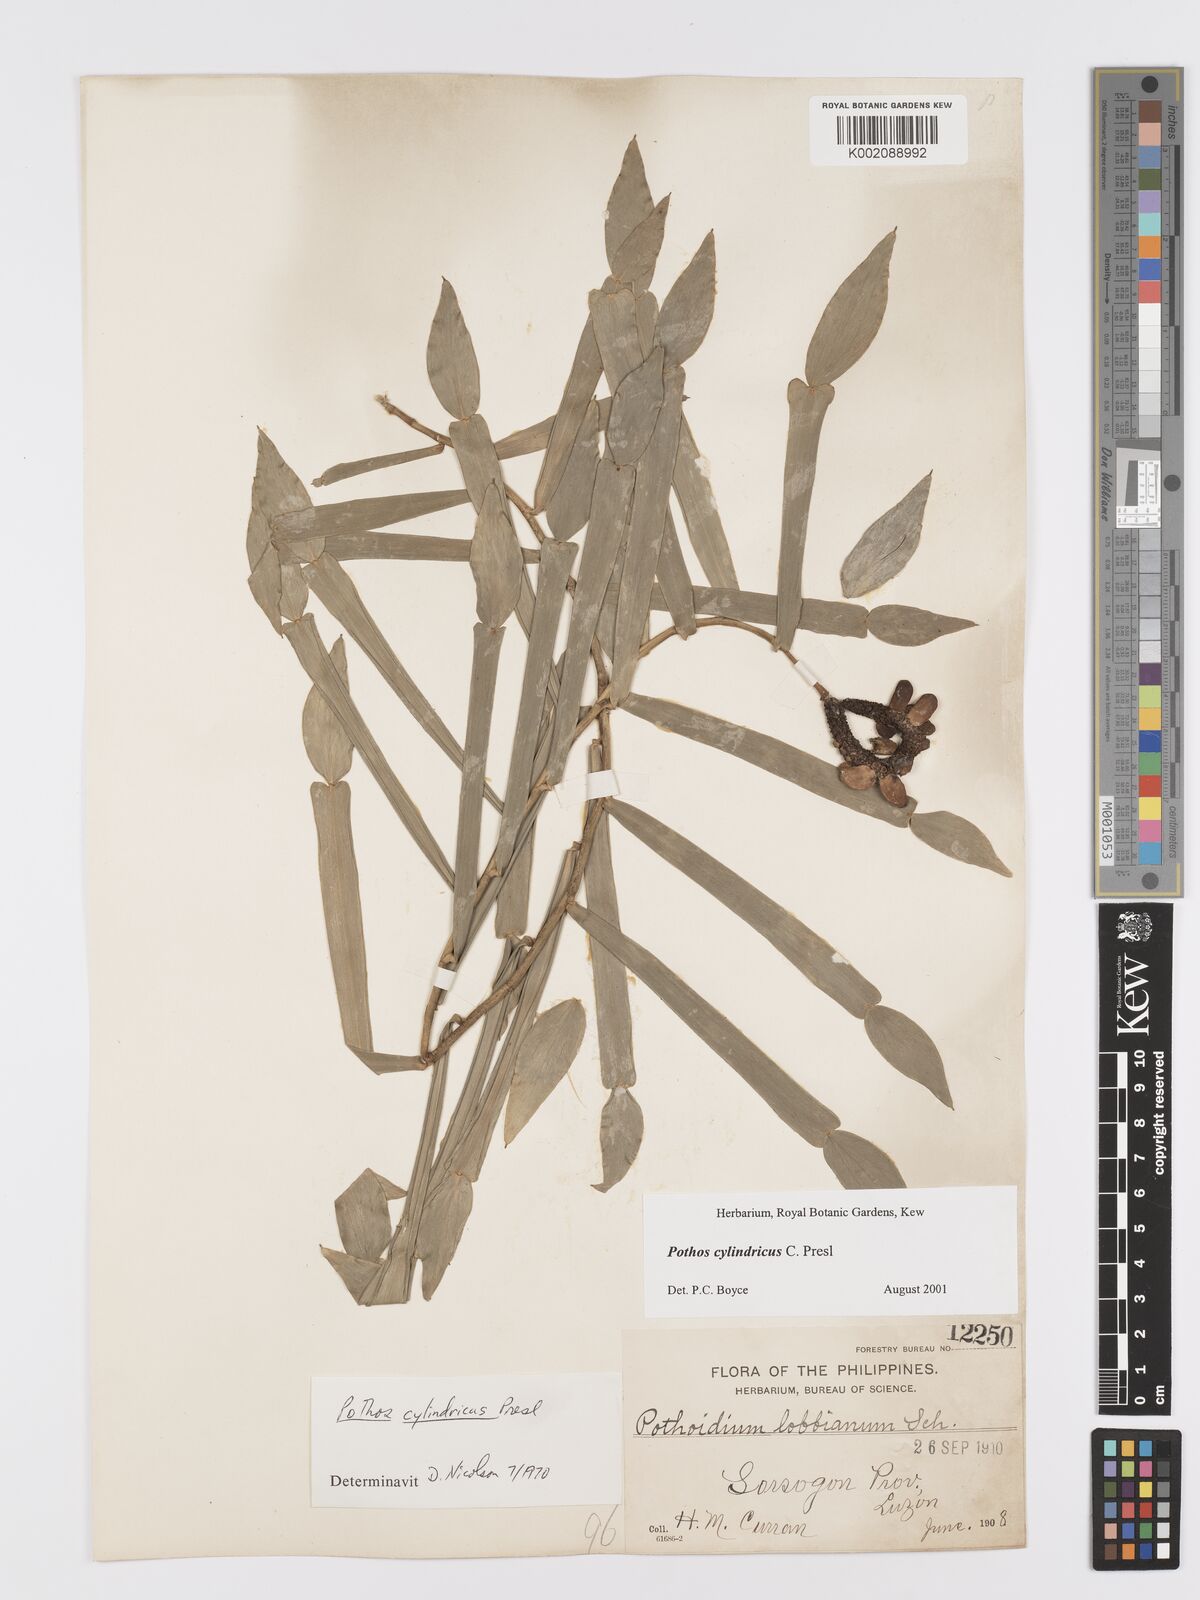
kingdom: Plantae
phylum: Tracheophyta
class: Liliopsida
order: Alismatales
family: Araceae
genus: Pothos
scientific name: Pothos cylindricus
